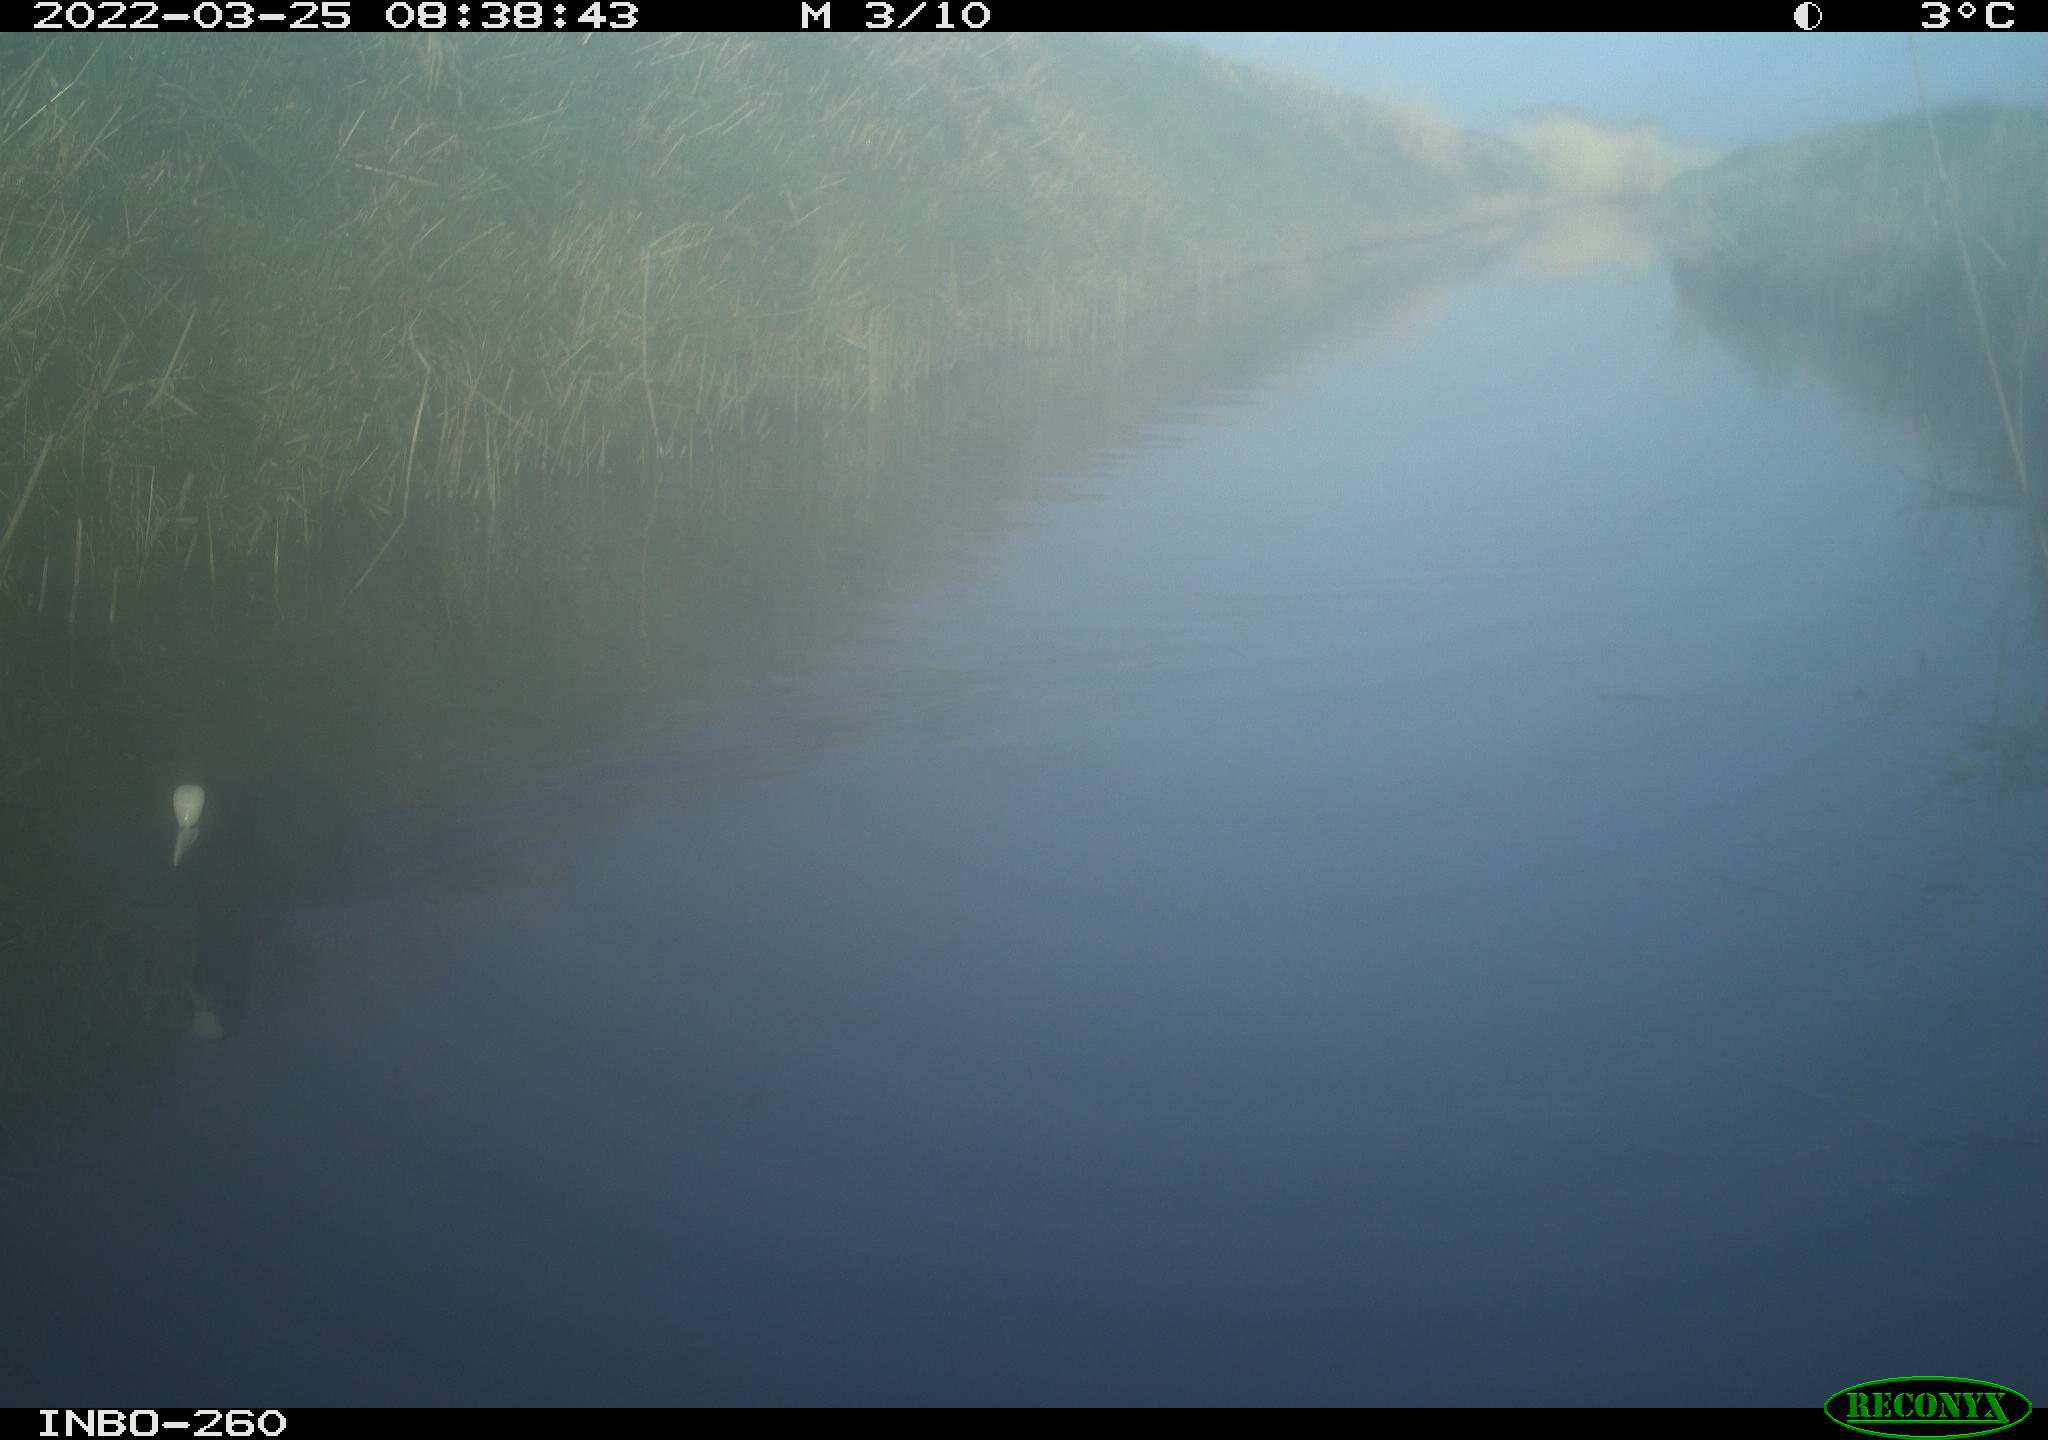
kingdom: Animalia
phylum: Chordata
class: Aves
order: Gruiformes
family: Rallidae
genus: Fulica
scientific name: Fulica atra
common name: Eurasian coot
